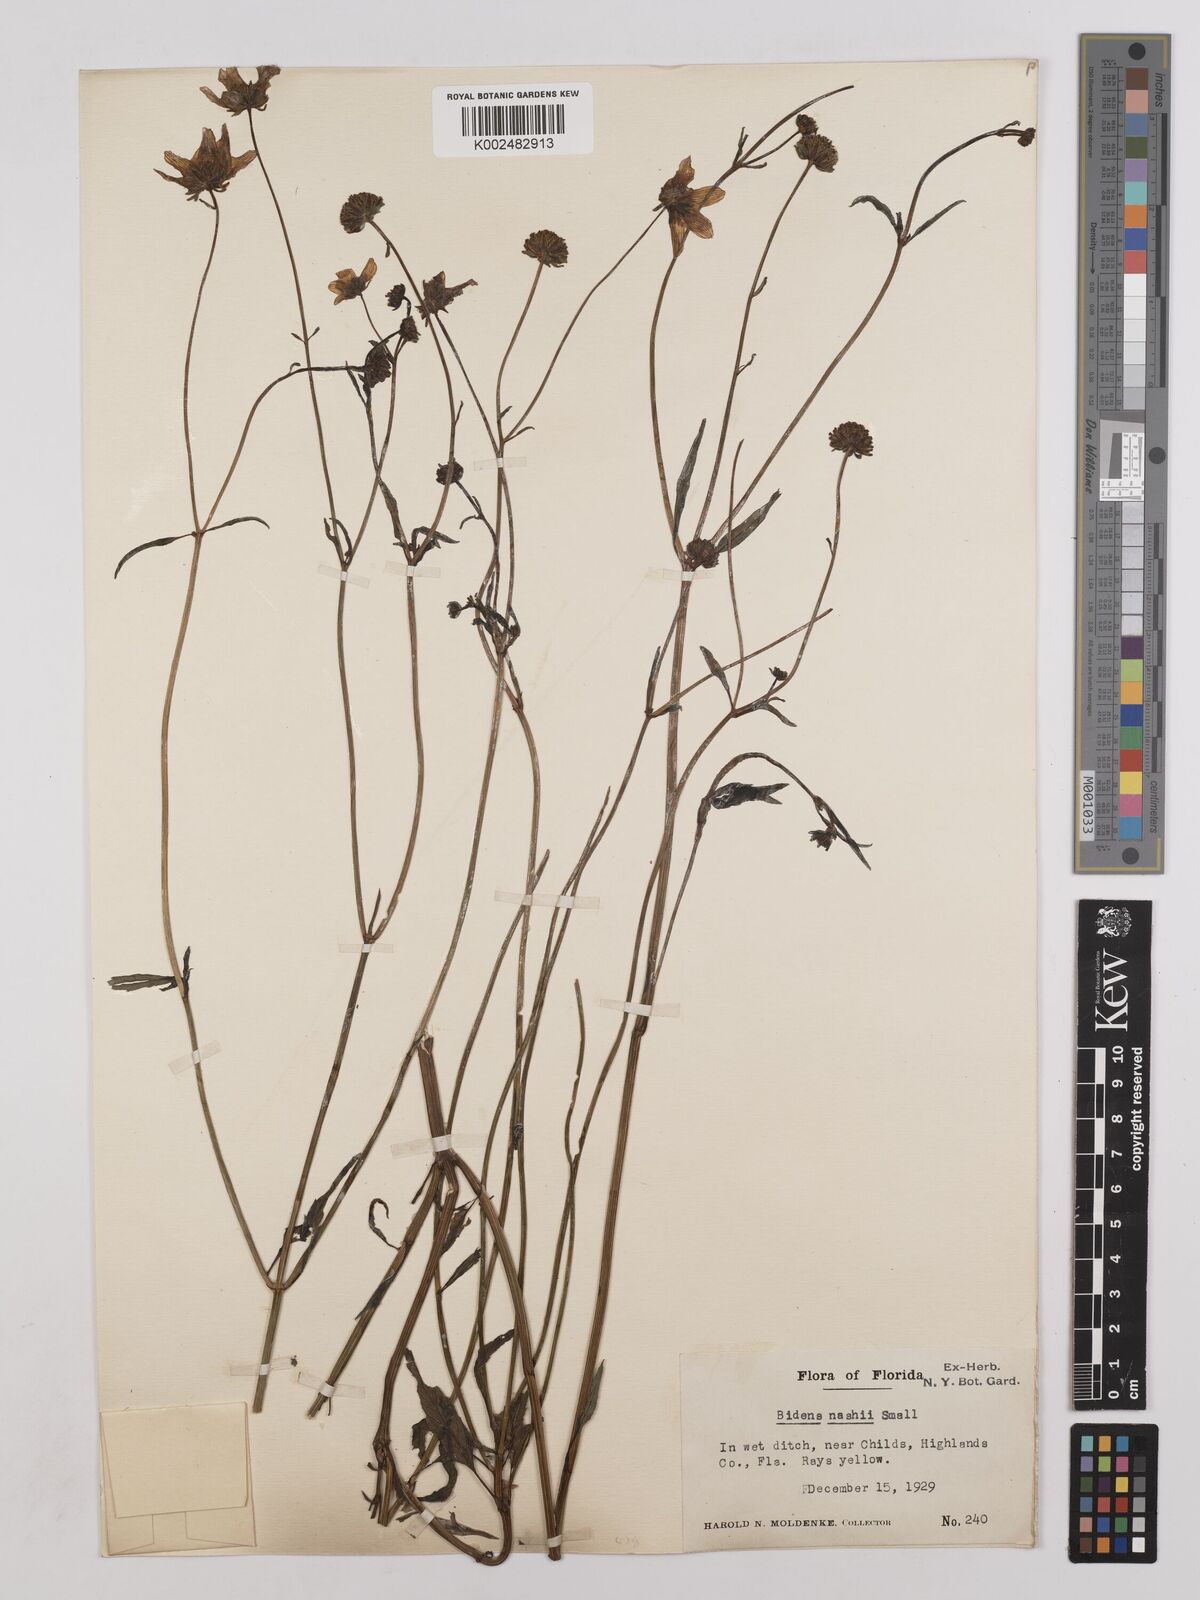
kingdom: Plantae
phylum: Tracheophyta
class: Magnoliopsida
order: Asterales
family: Asteraceae
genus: Bidens
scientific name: Bidens
